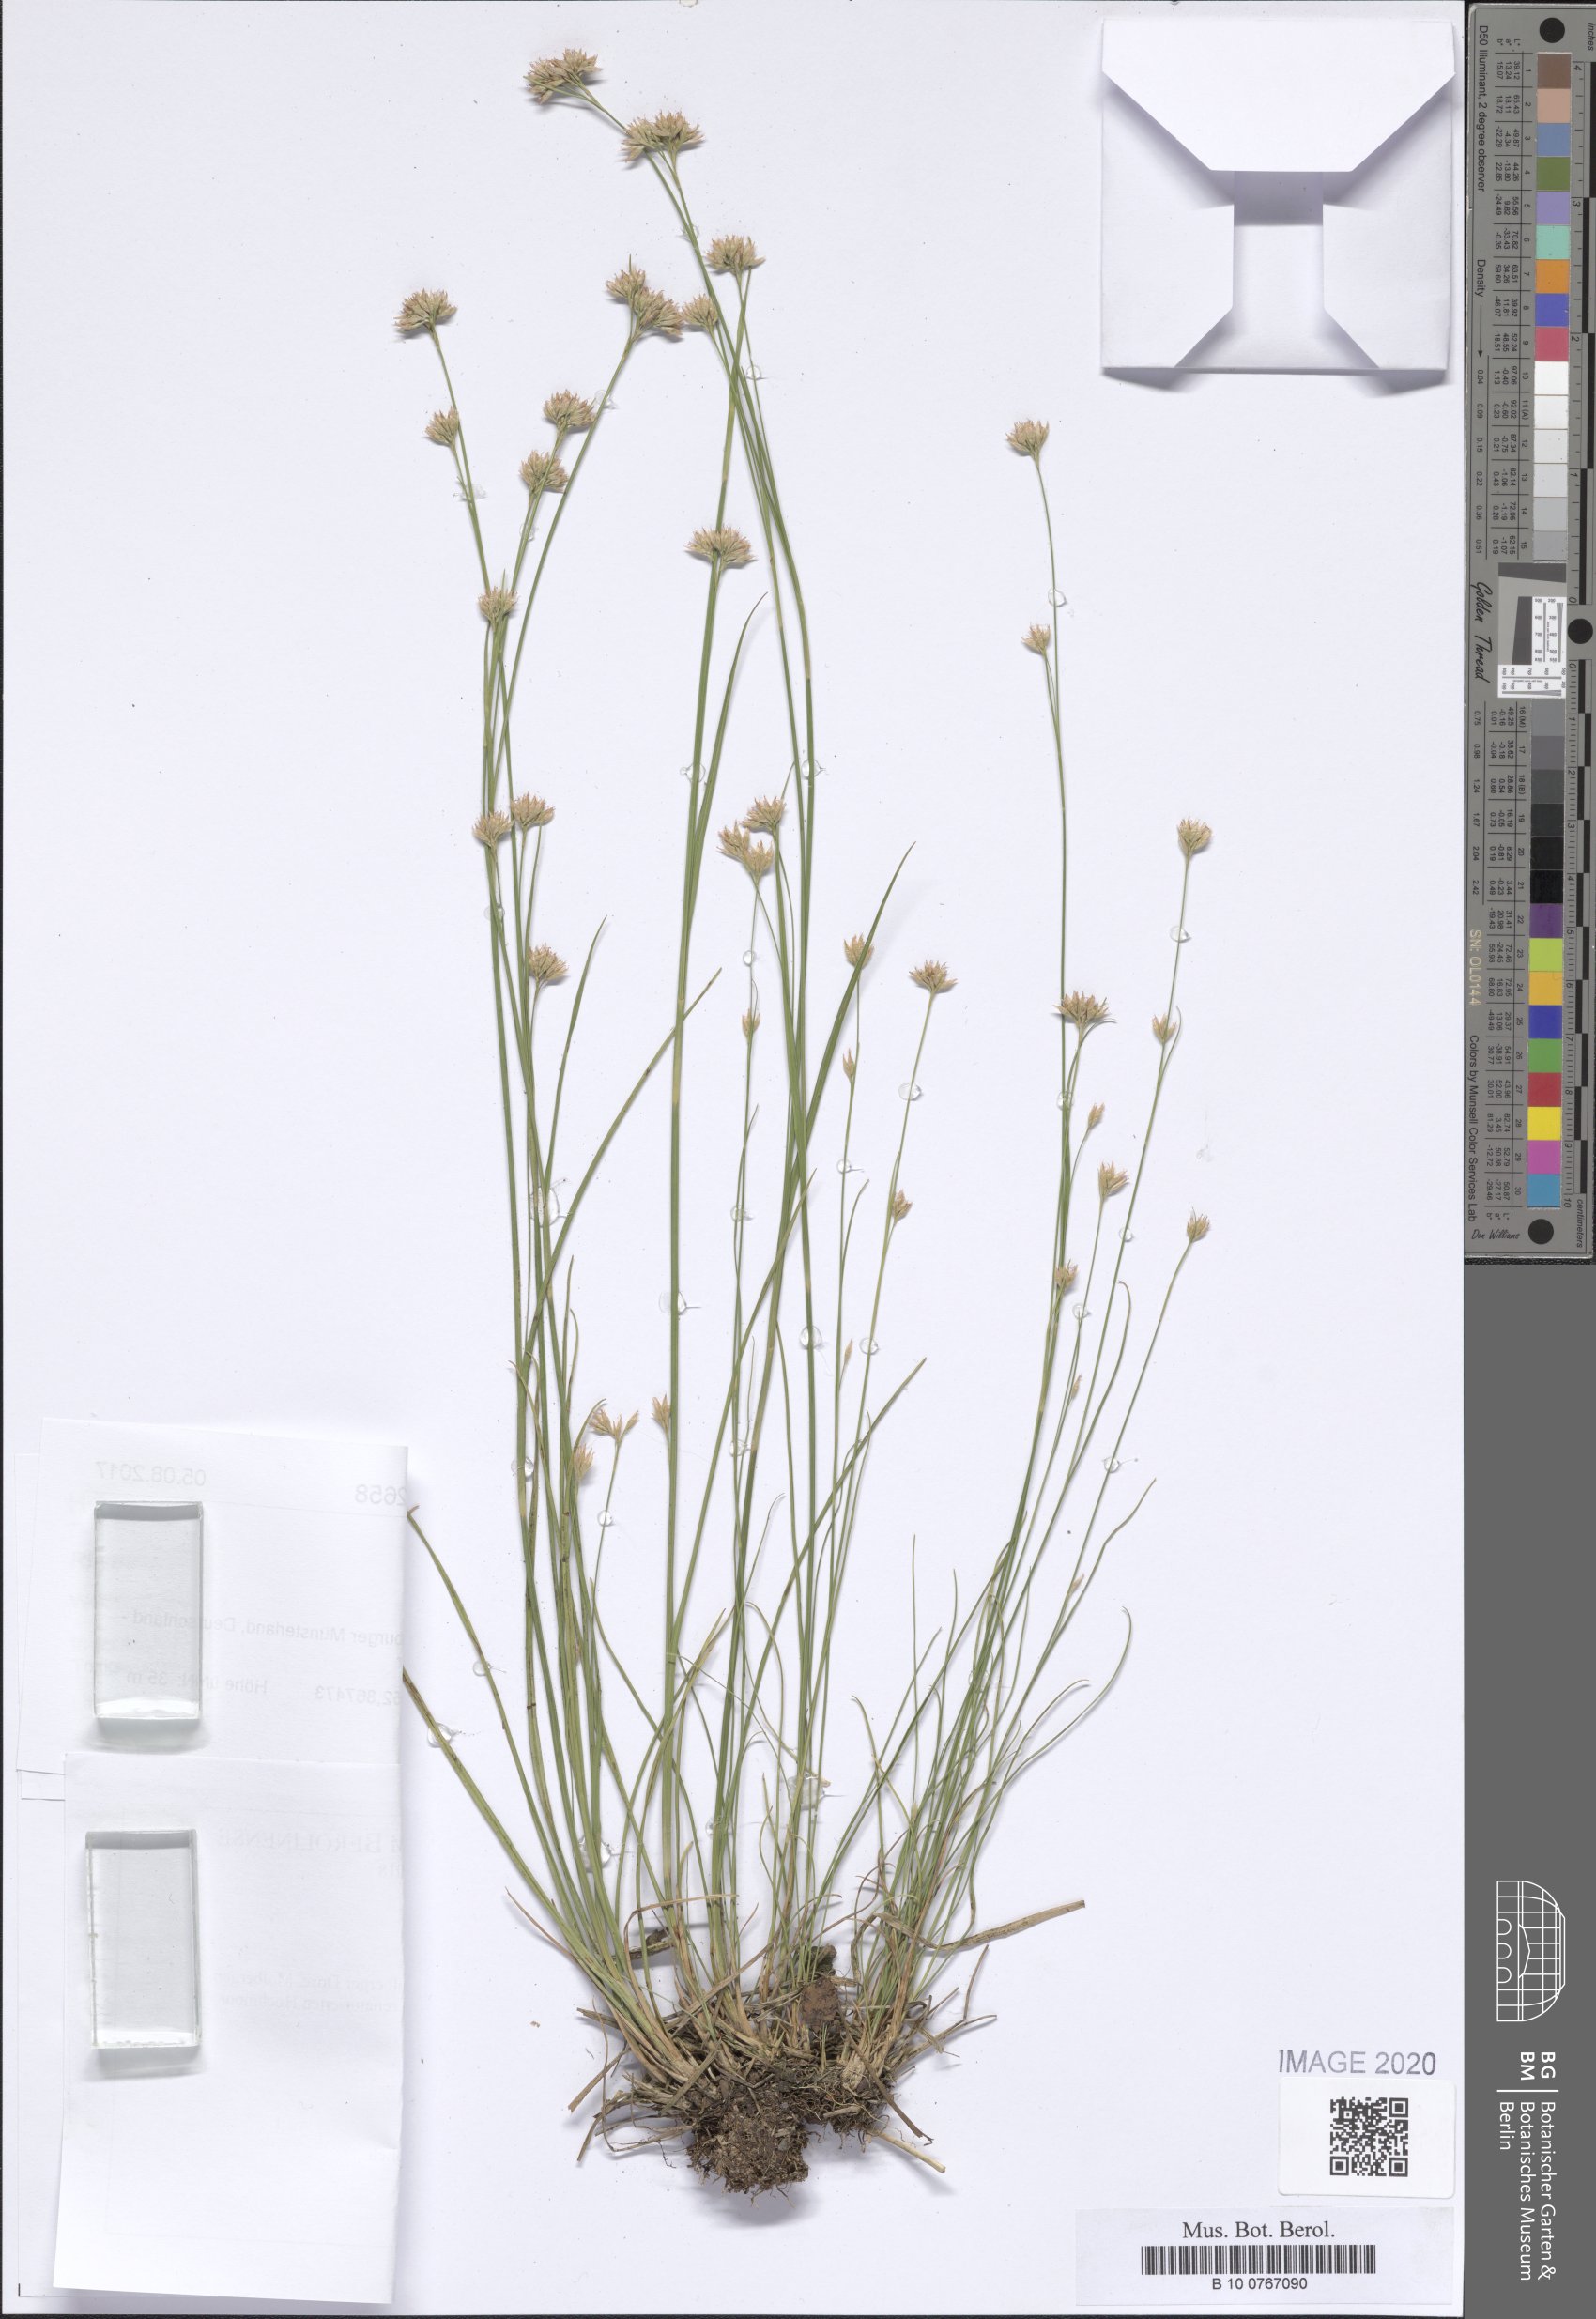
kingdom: Plantae
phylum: Tracheophyta
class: Liliopsida
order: Poales
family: Cyperaceae
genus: Rhynchospora
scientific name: Rhynchospora alba
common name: White beak-sedge
